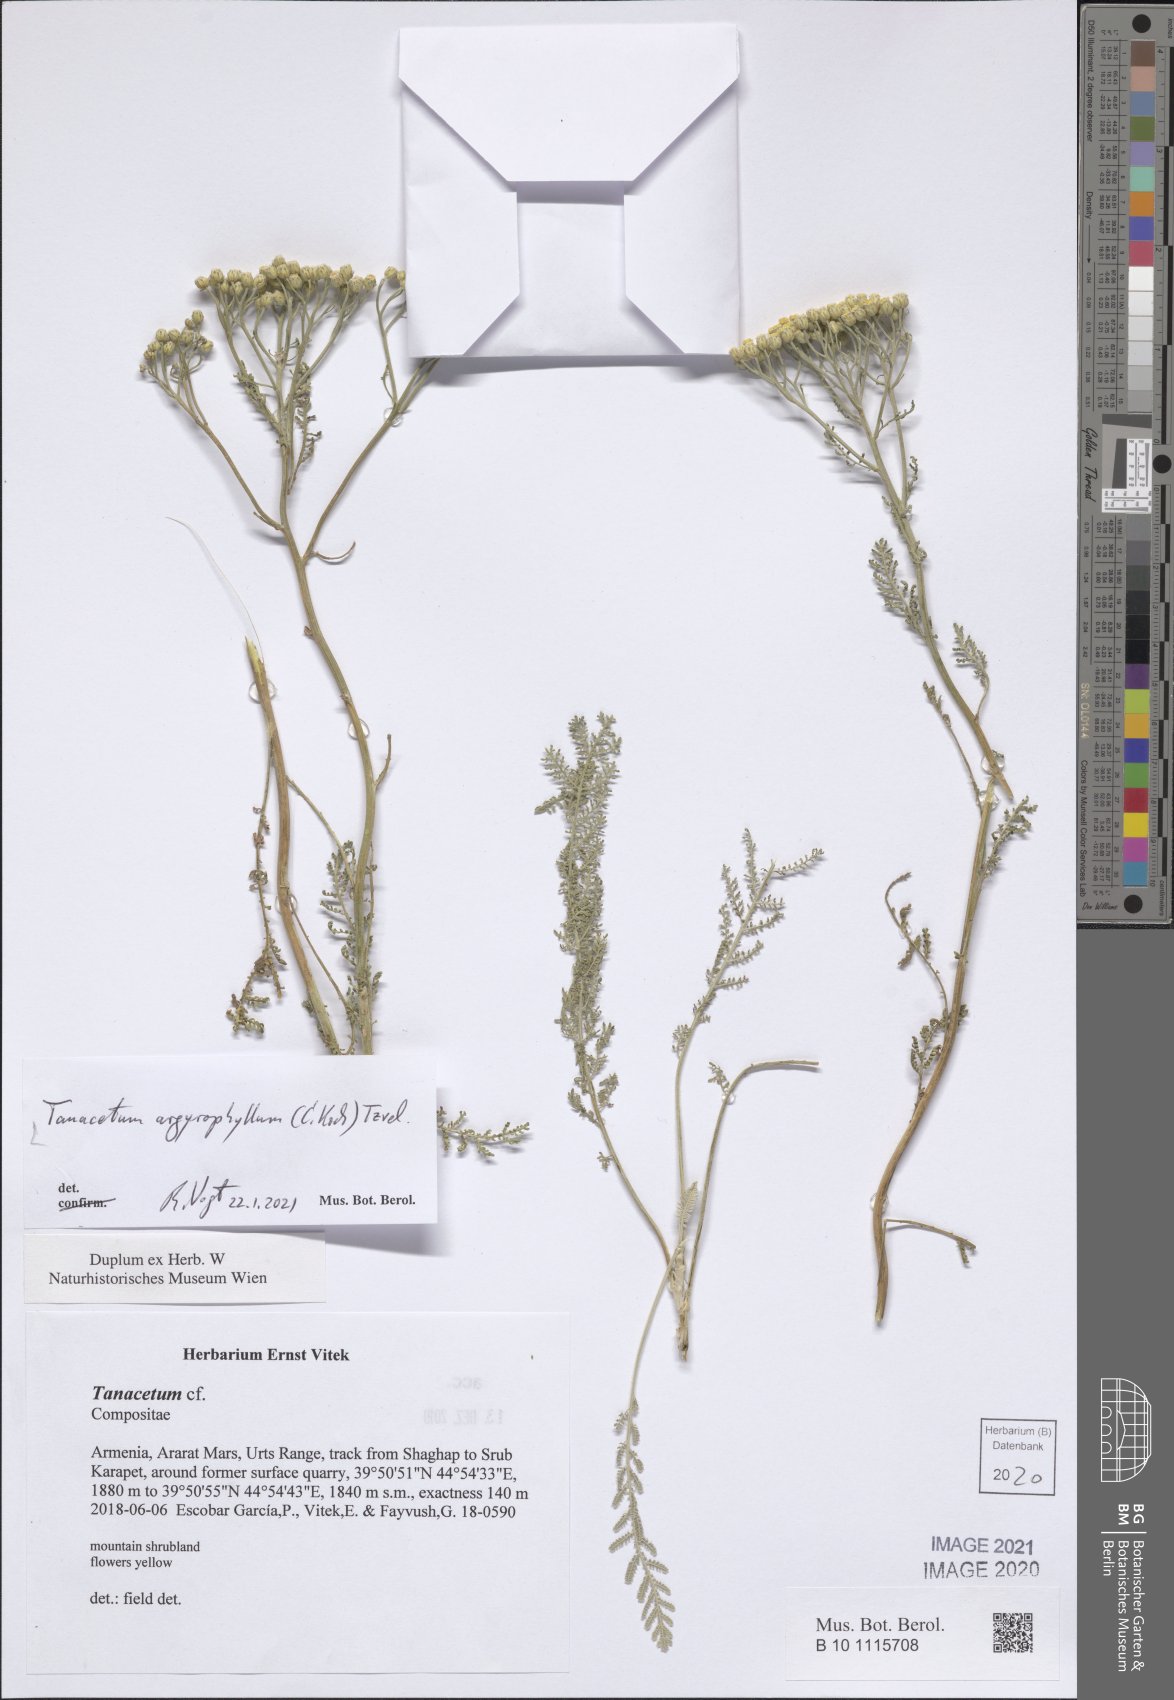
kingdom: Plantae
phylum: Tracheophyta
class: Magnoliopsida
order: Asterales
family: Asteraceae
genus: Tanacetum
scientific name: Tanacetum polycephalum
